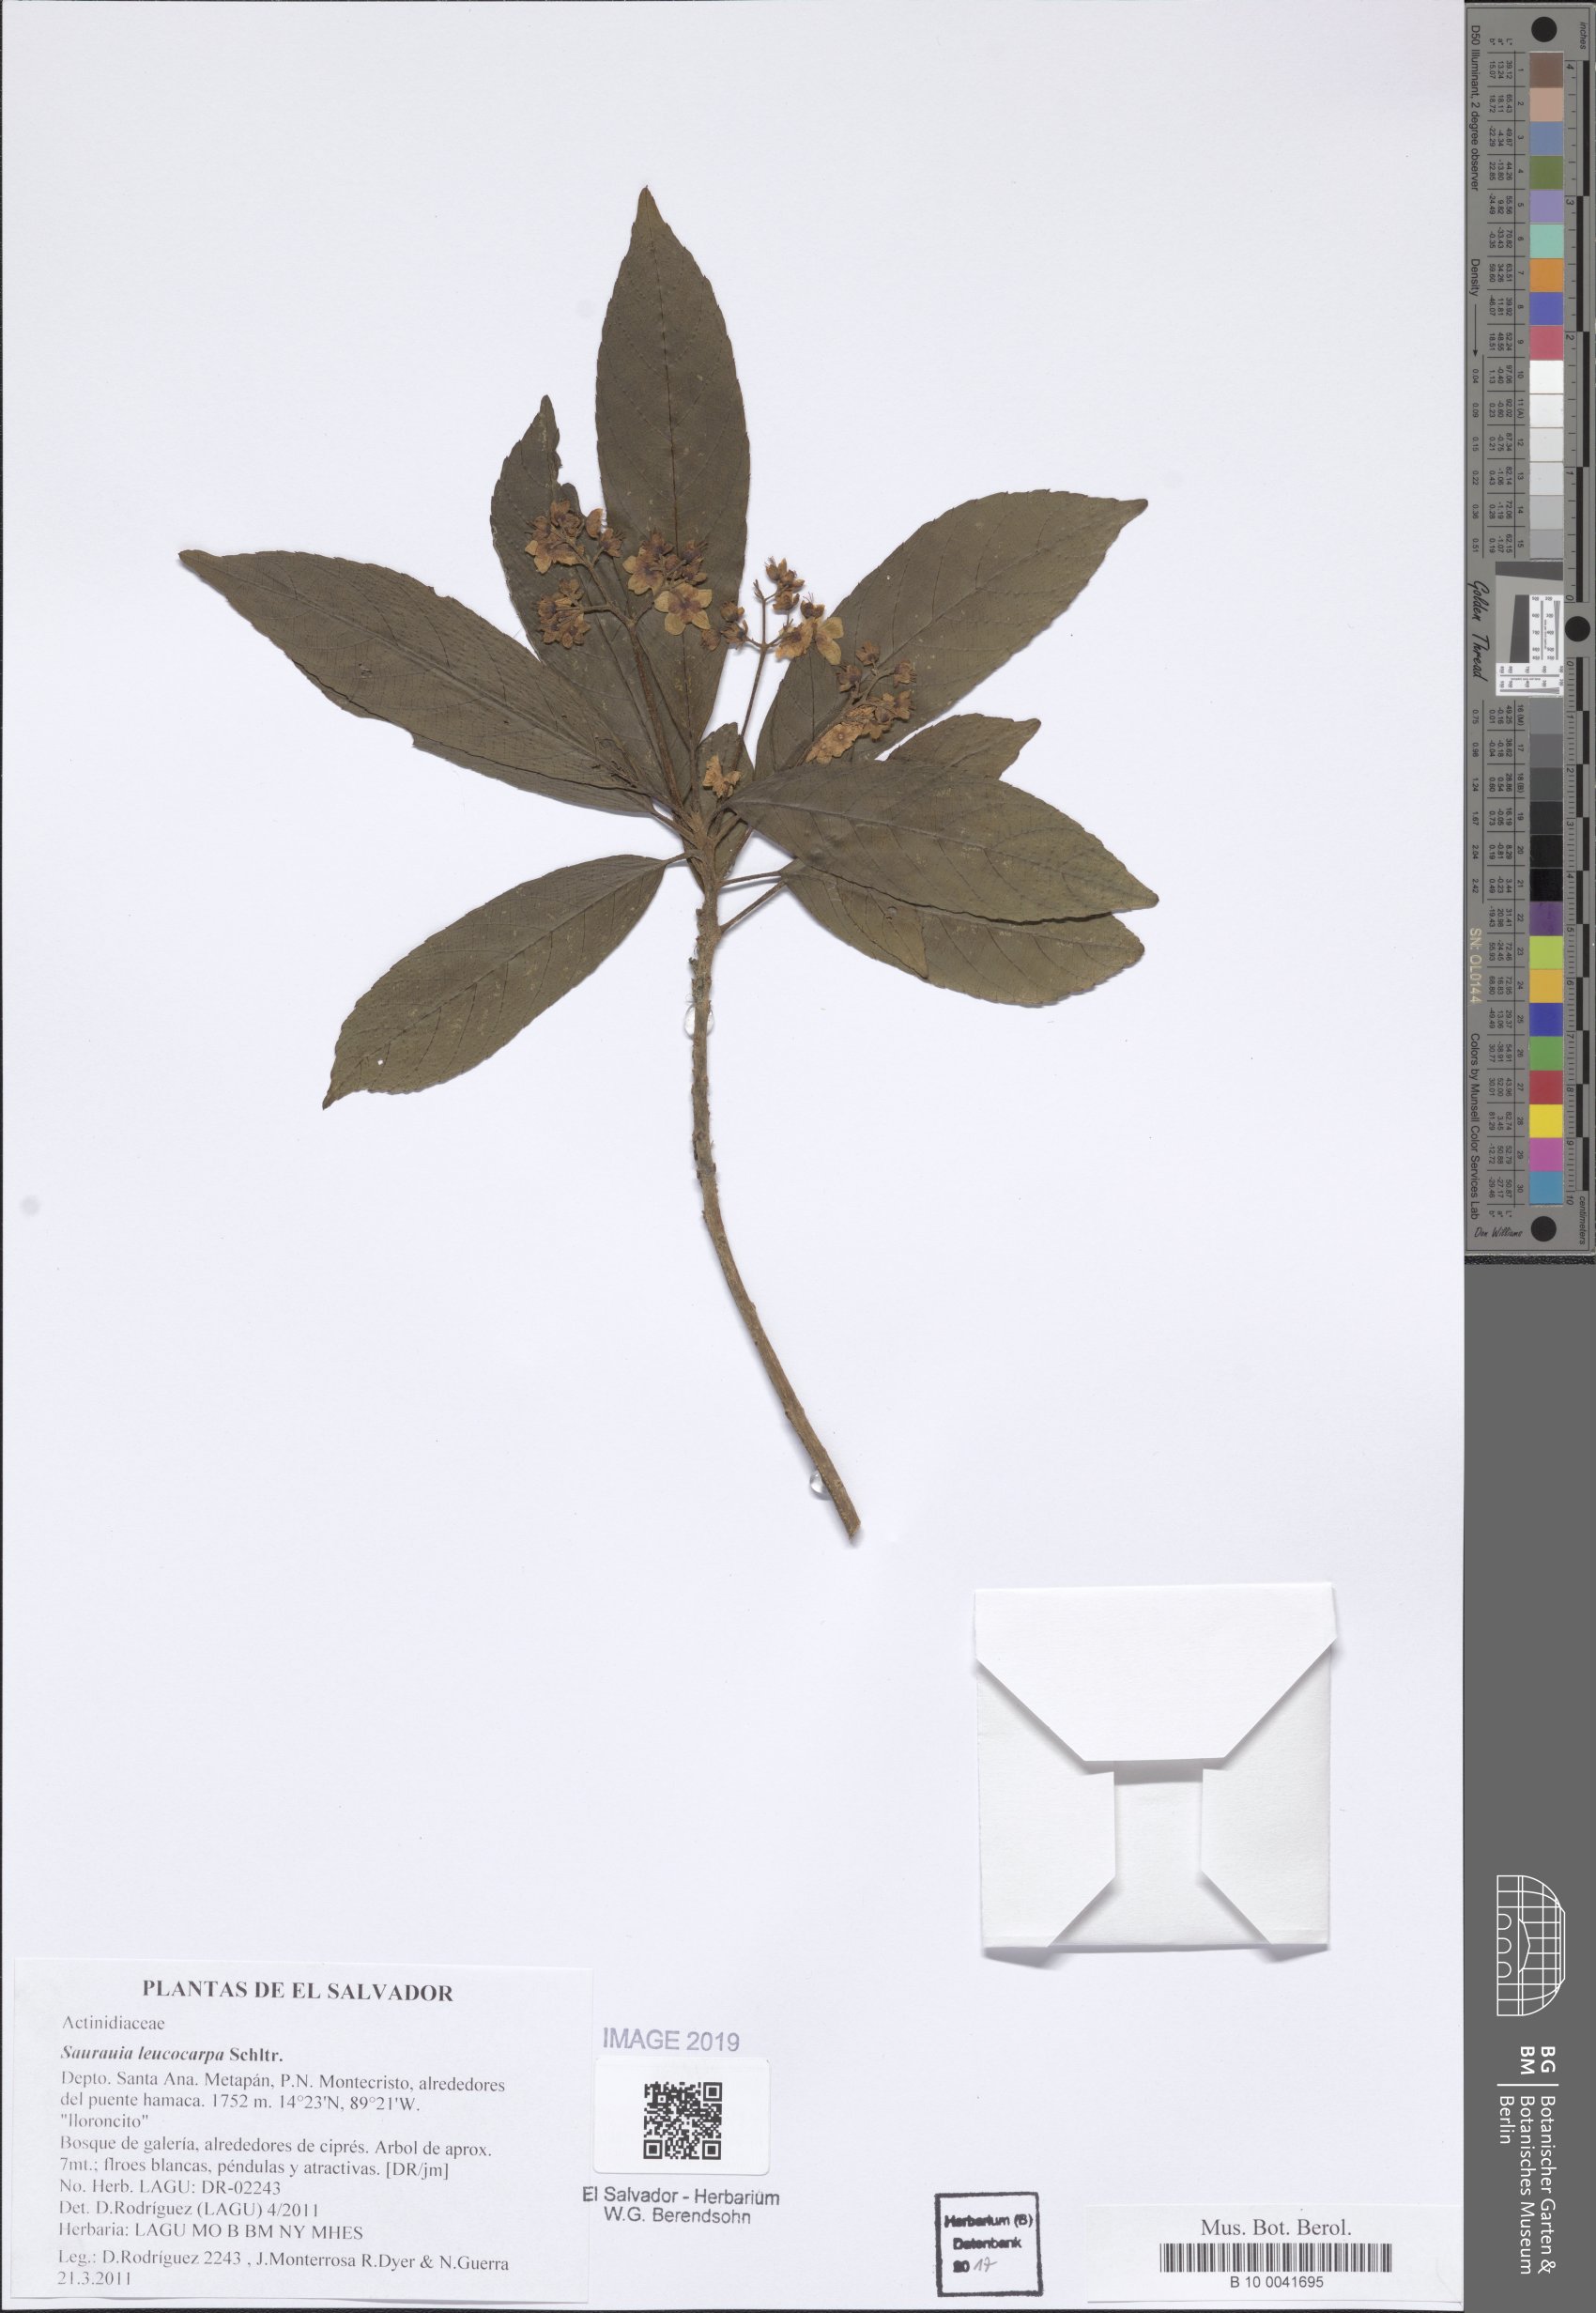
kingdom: Plantae
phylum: Tracheophyta
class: Magnoliopsida
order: Ericales
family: Actinidiaceae
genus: Saurauia
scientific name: Saurauia leucocarpa
